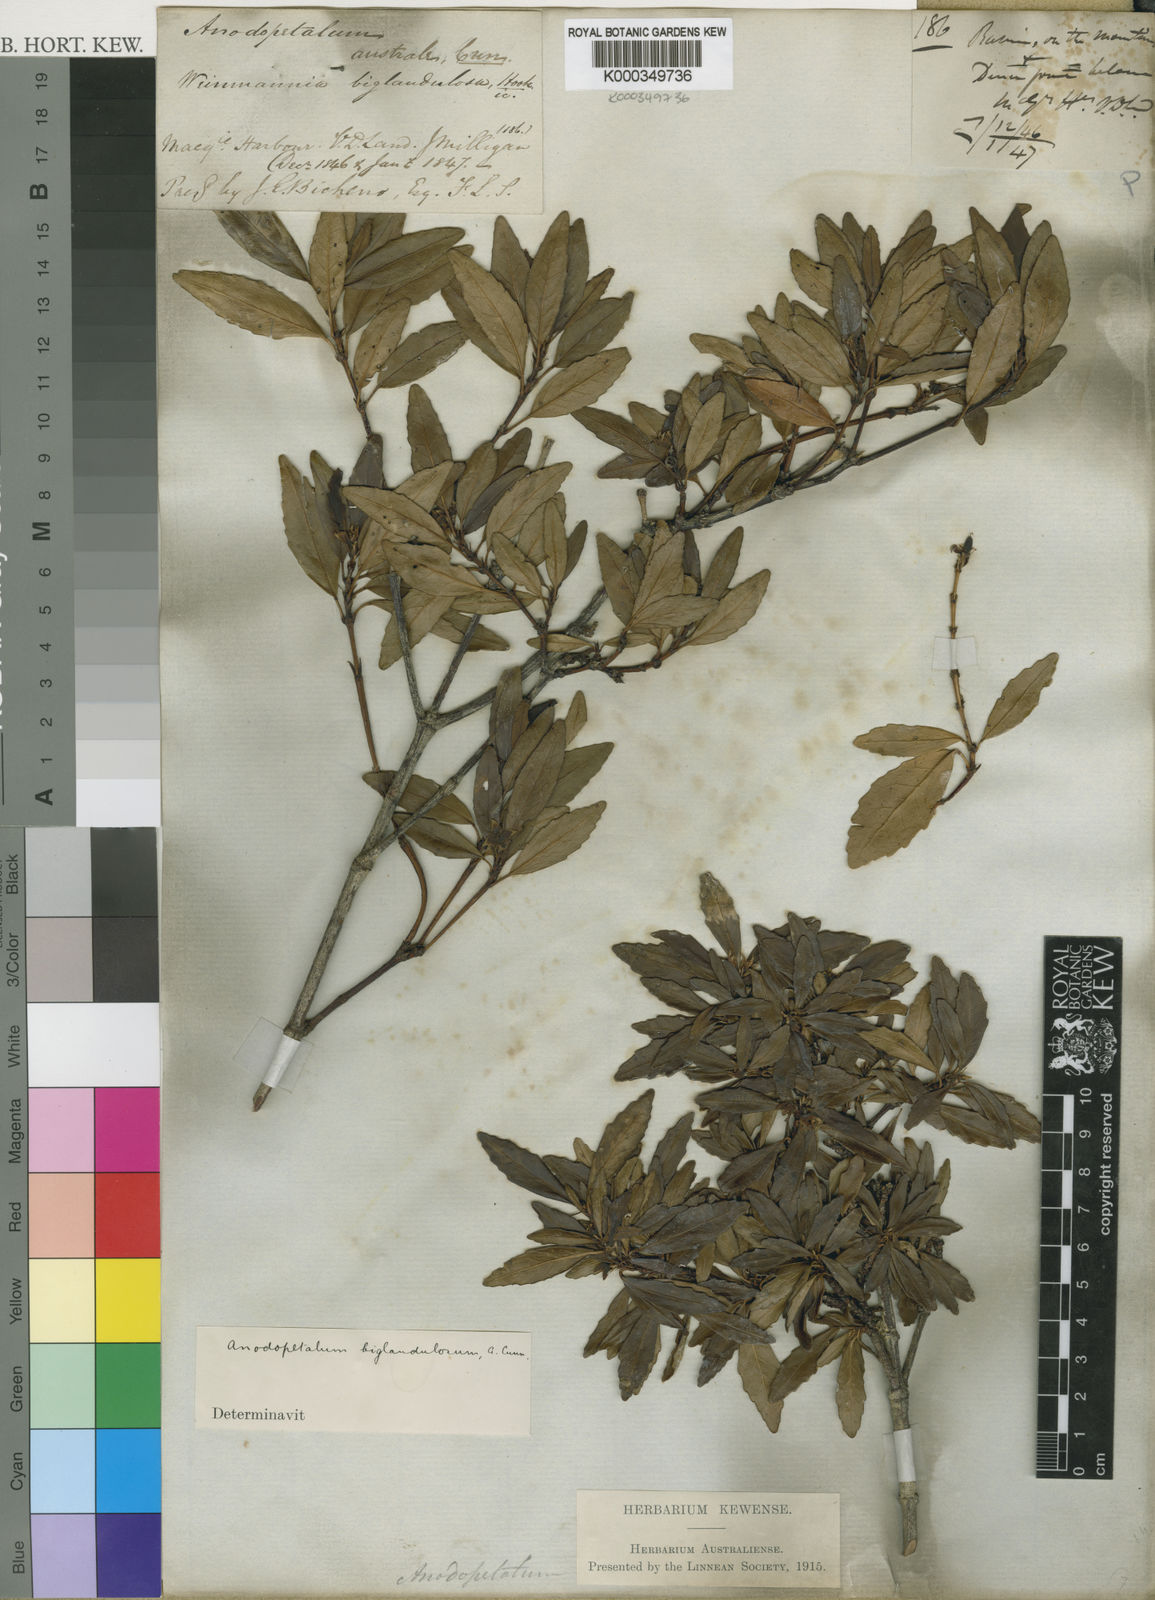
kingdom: Plantae
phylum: Tracheophyta
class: Magnoliopsida
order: Oxalidales
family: Cunoniaceae
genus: Anodopetalum
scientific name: Anodopetalum biglandulosum
